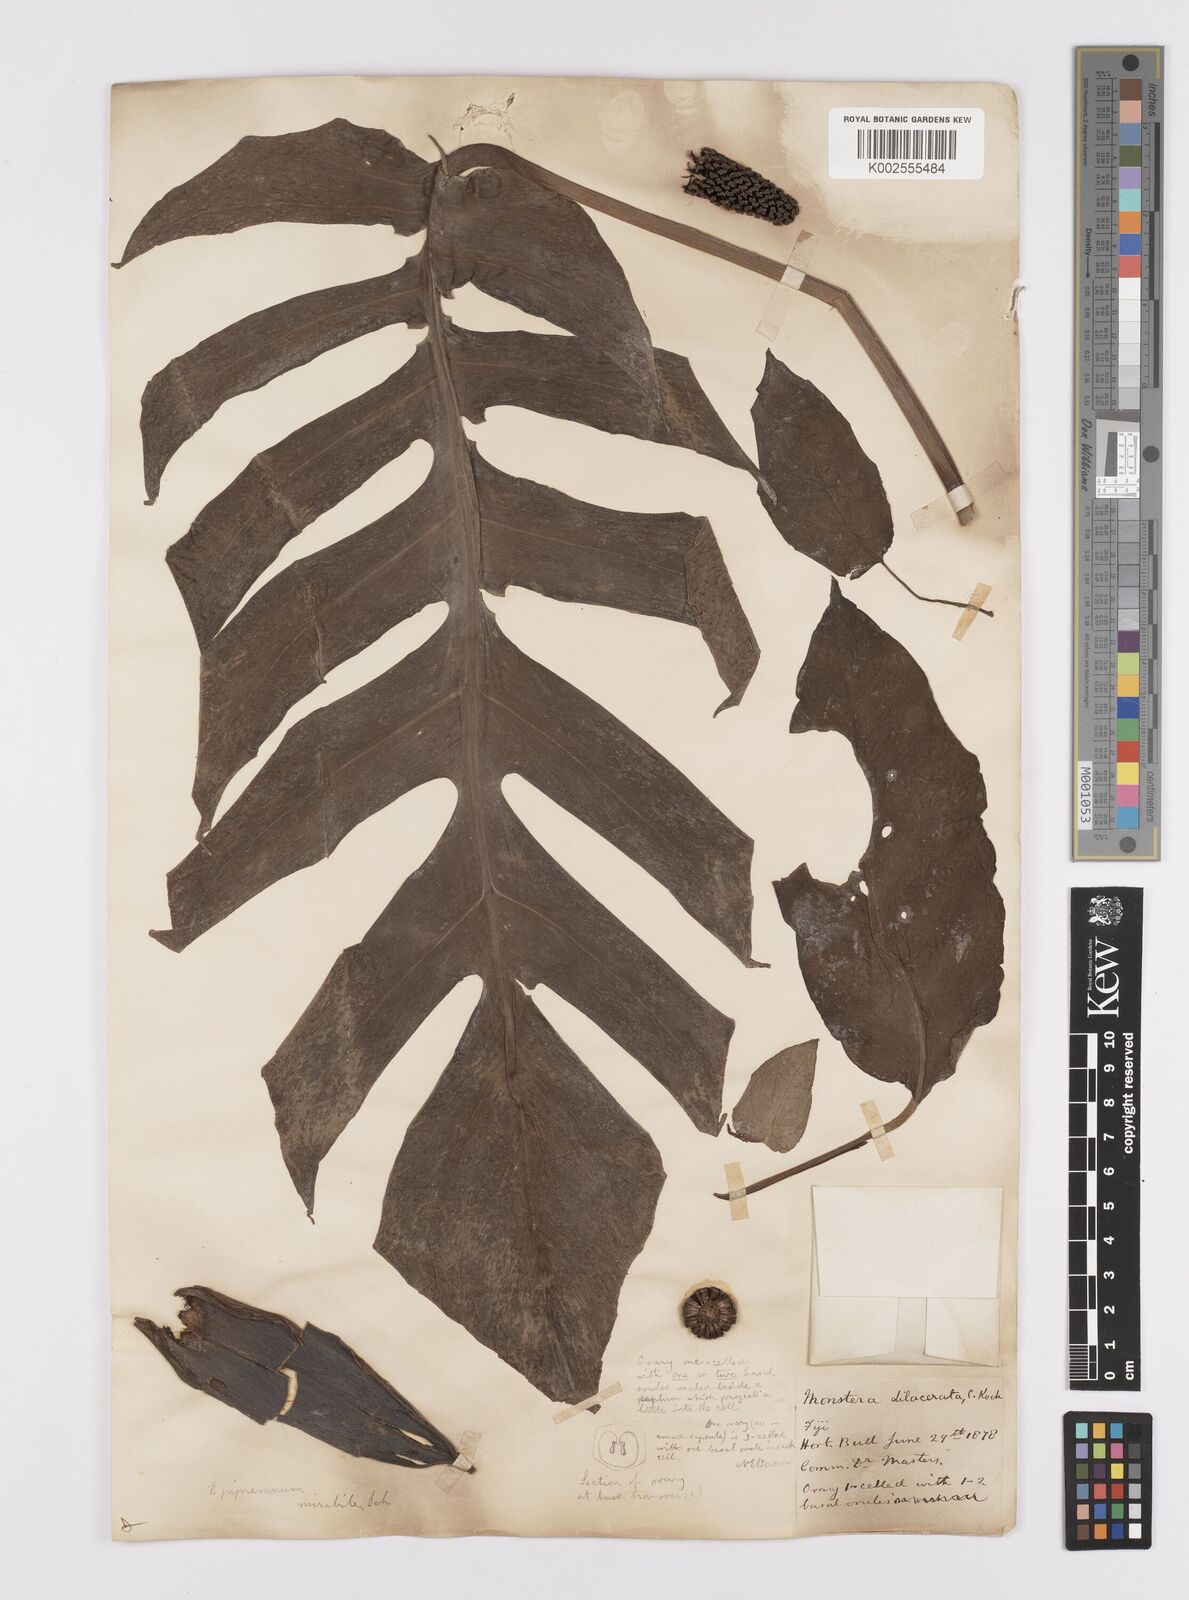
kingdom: Plantae
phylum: Tracheophyta
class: Liliopsida
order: Alismatales
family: Araceae
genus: Epipremnum
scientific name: Epipremnum pinnatum
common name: Centipede tongavine
